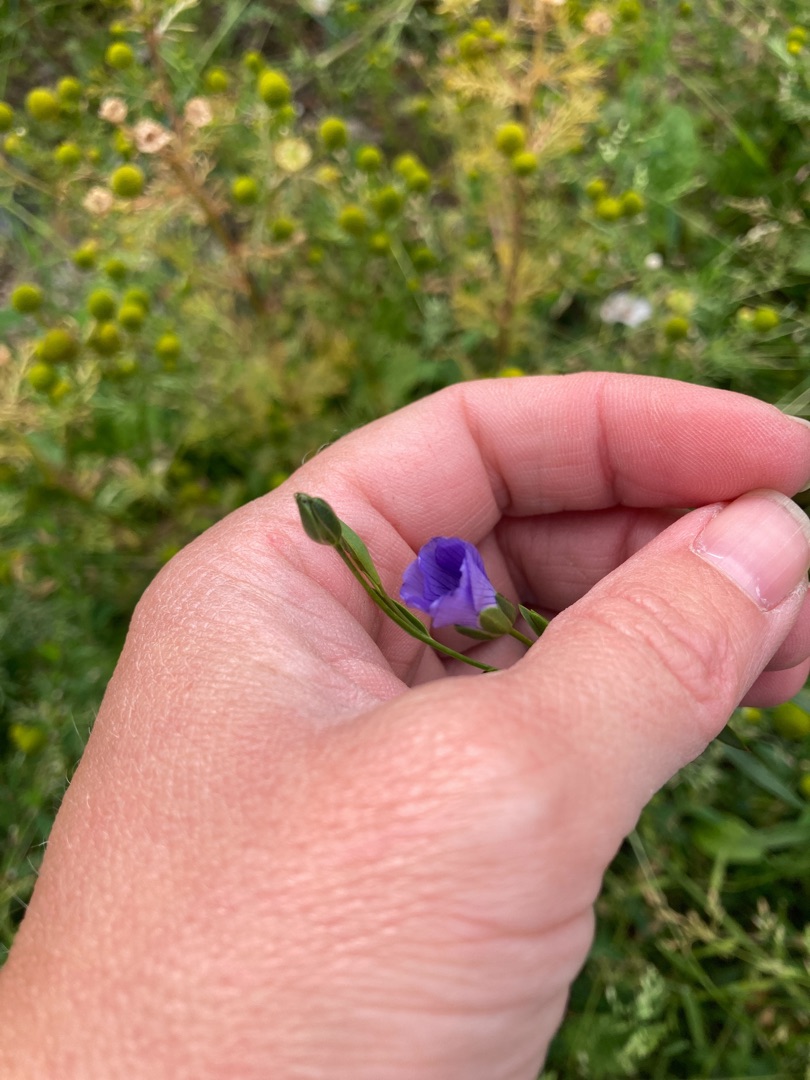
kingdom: Plantae
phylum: Tracheophyta
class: Magnoliopsida
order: Malpighiales
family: Linaceae
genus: Linum
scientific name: Linum usitatissimum
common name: Almindelig hør
